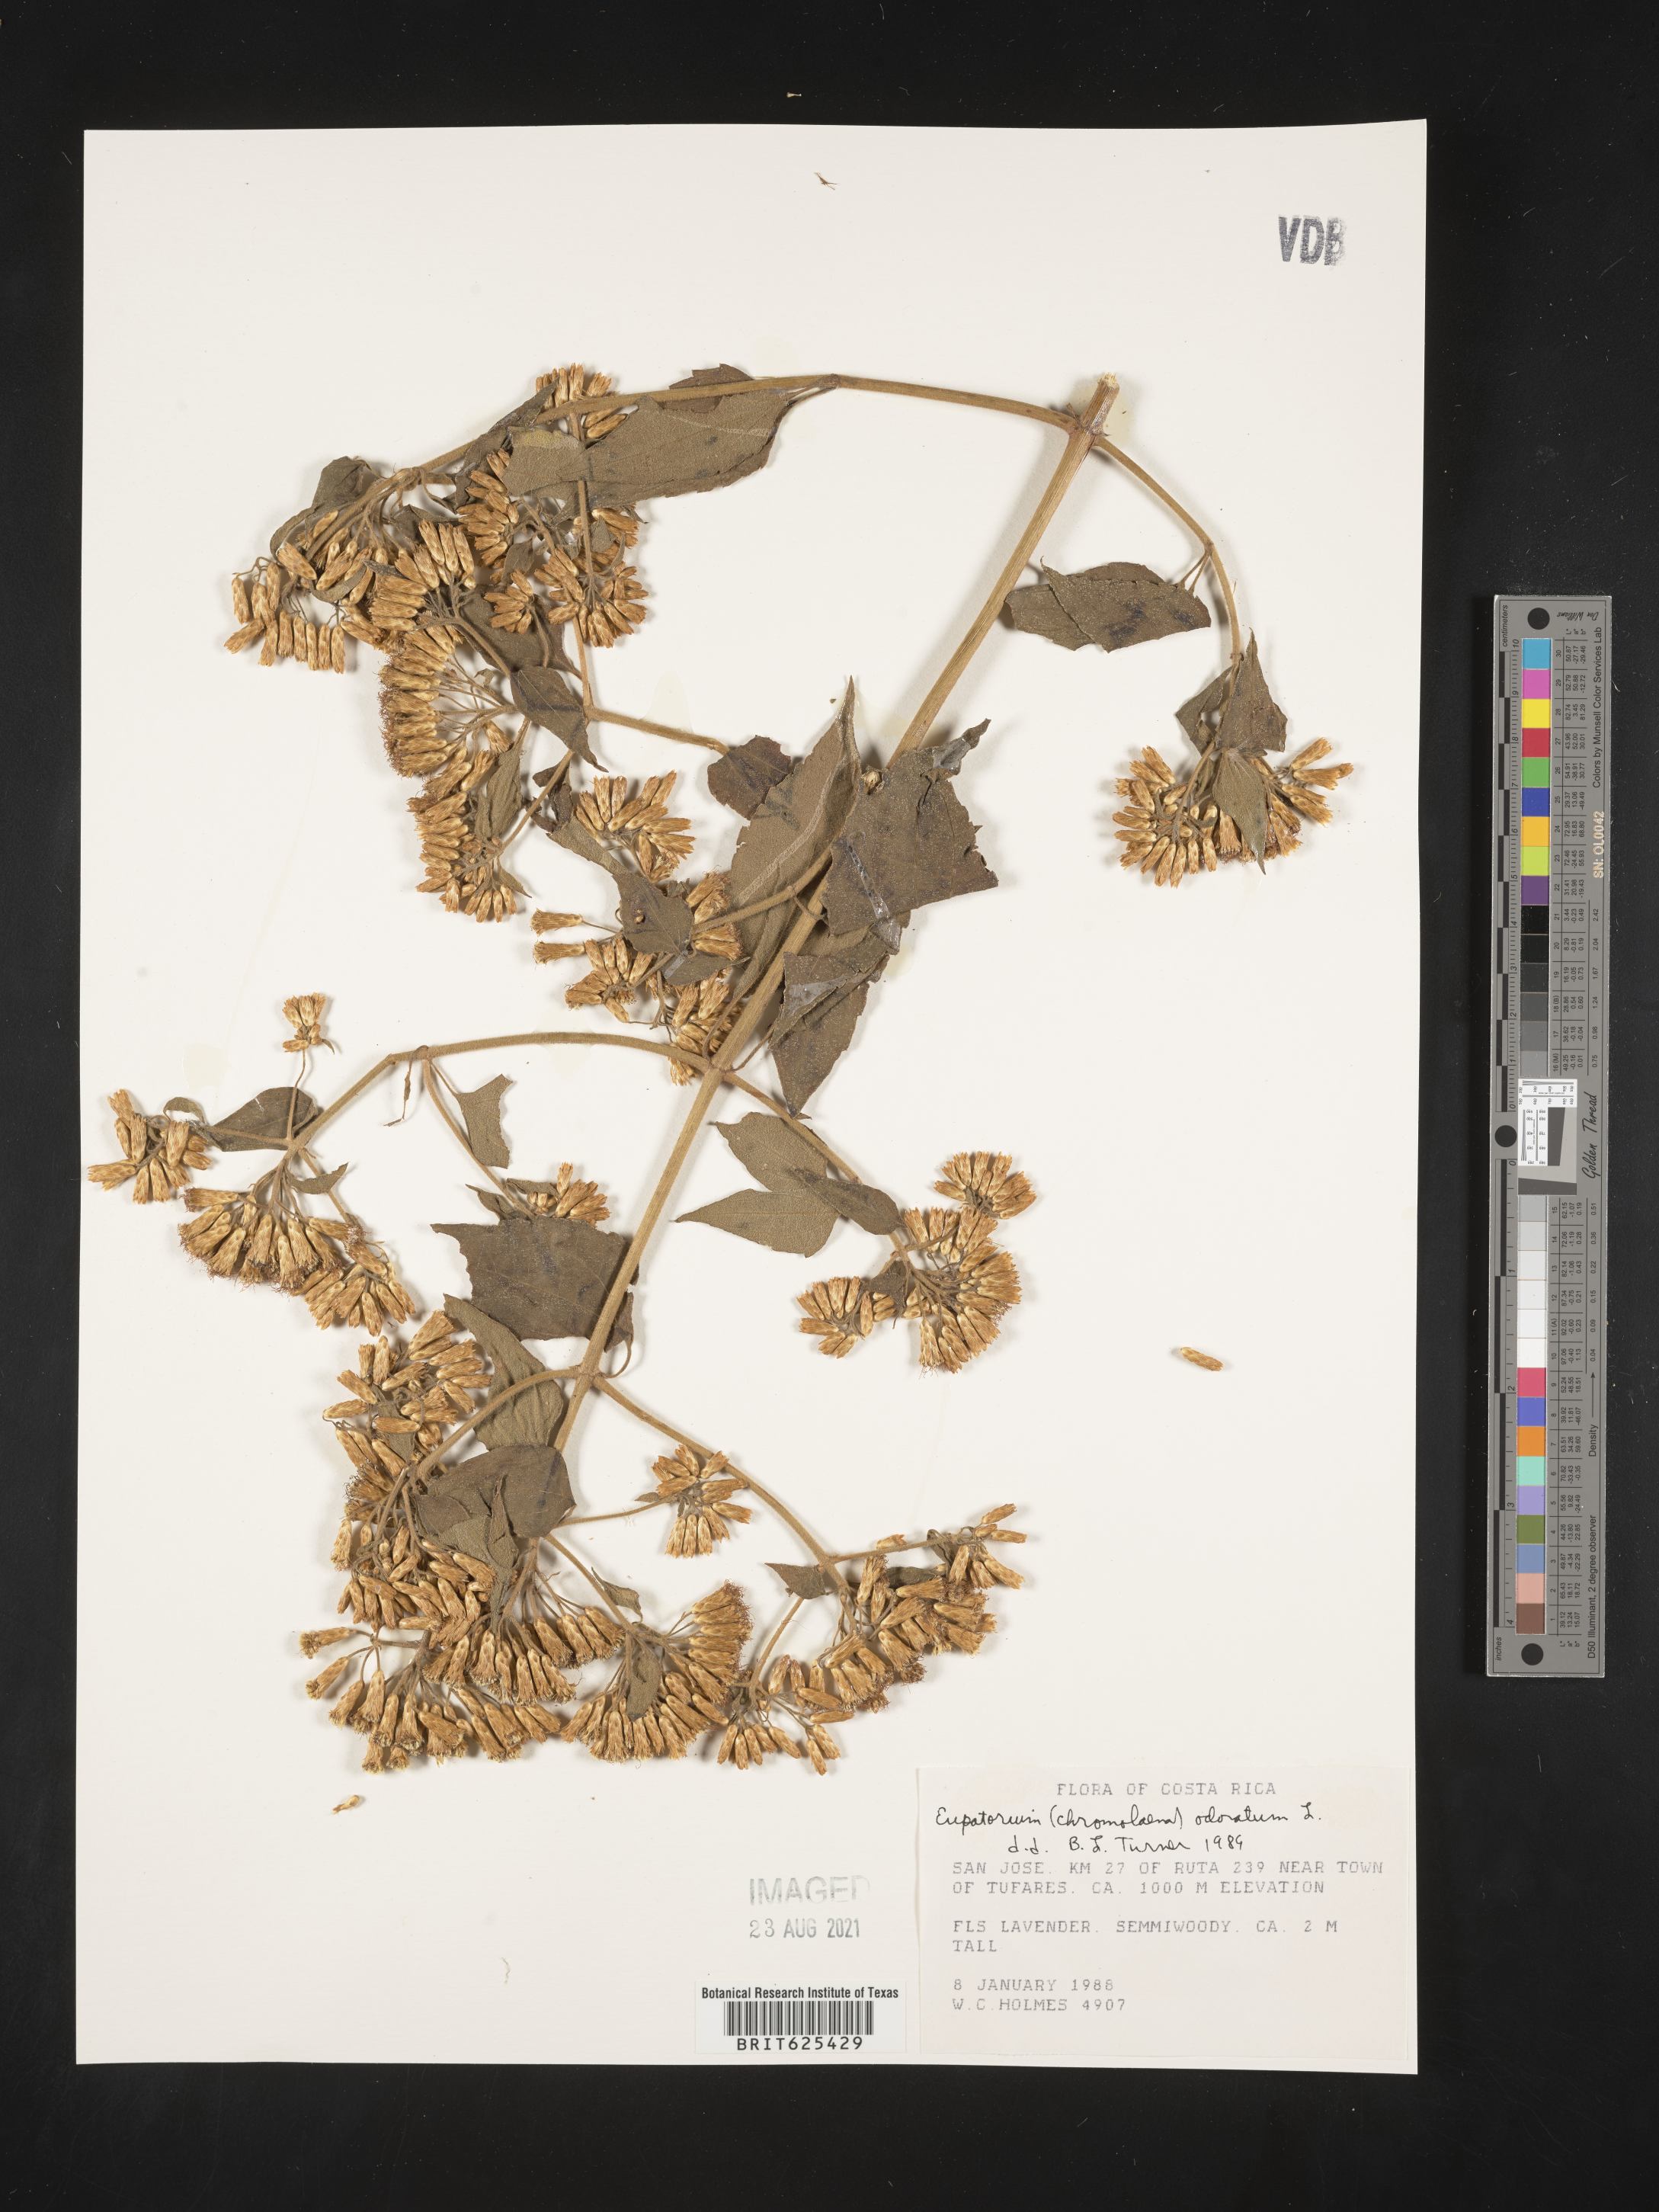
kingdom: Plantae
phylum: Tracheophyta
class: Magnoliopsida
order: Asterales
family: Asteraceae
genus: Ageratina
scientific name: Ageratina altissima
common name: White snakeroot
